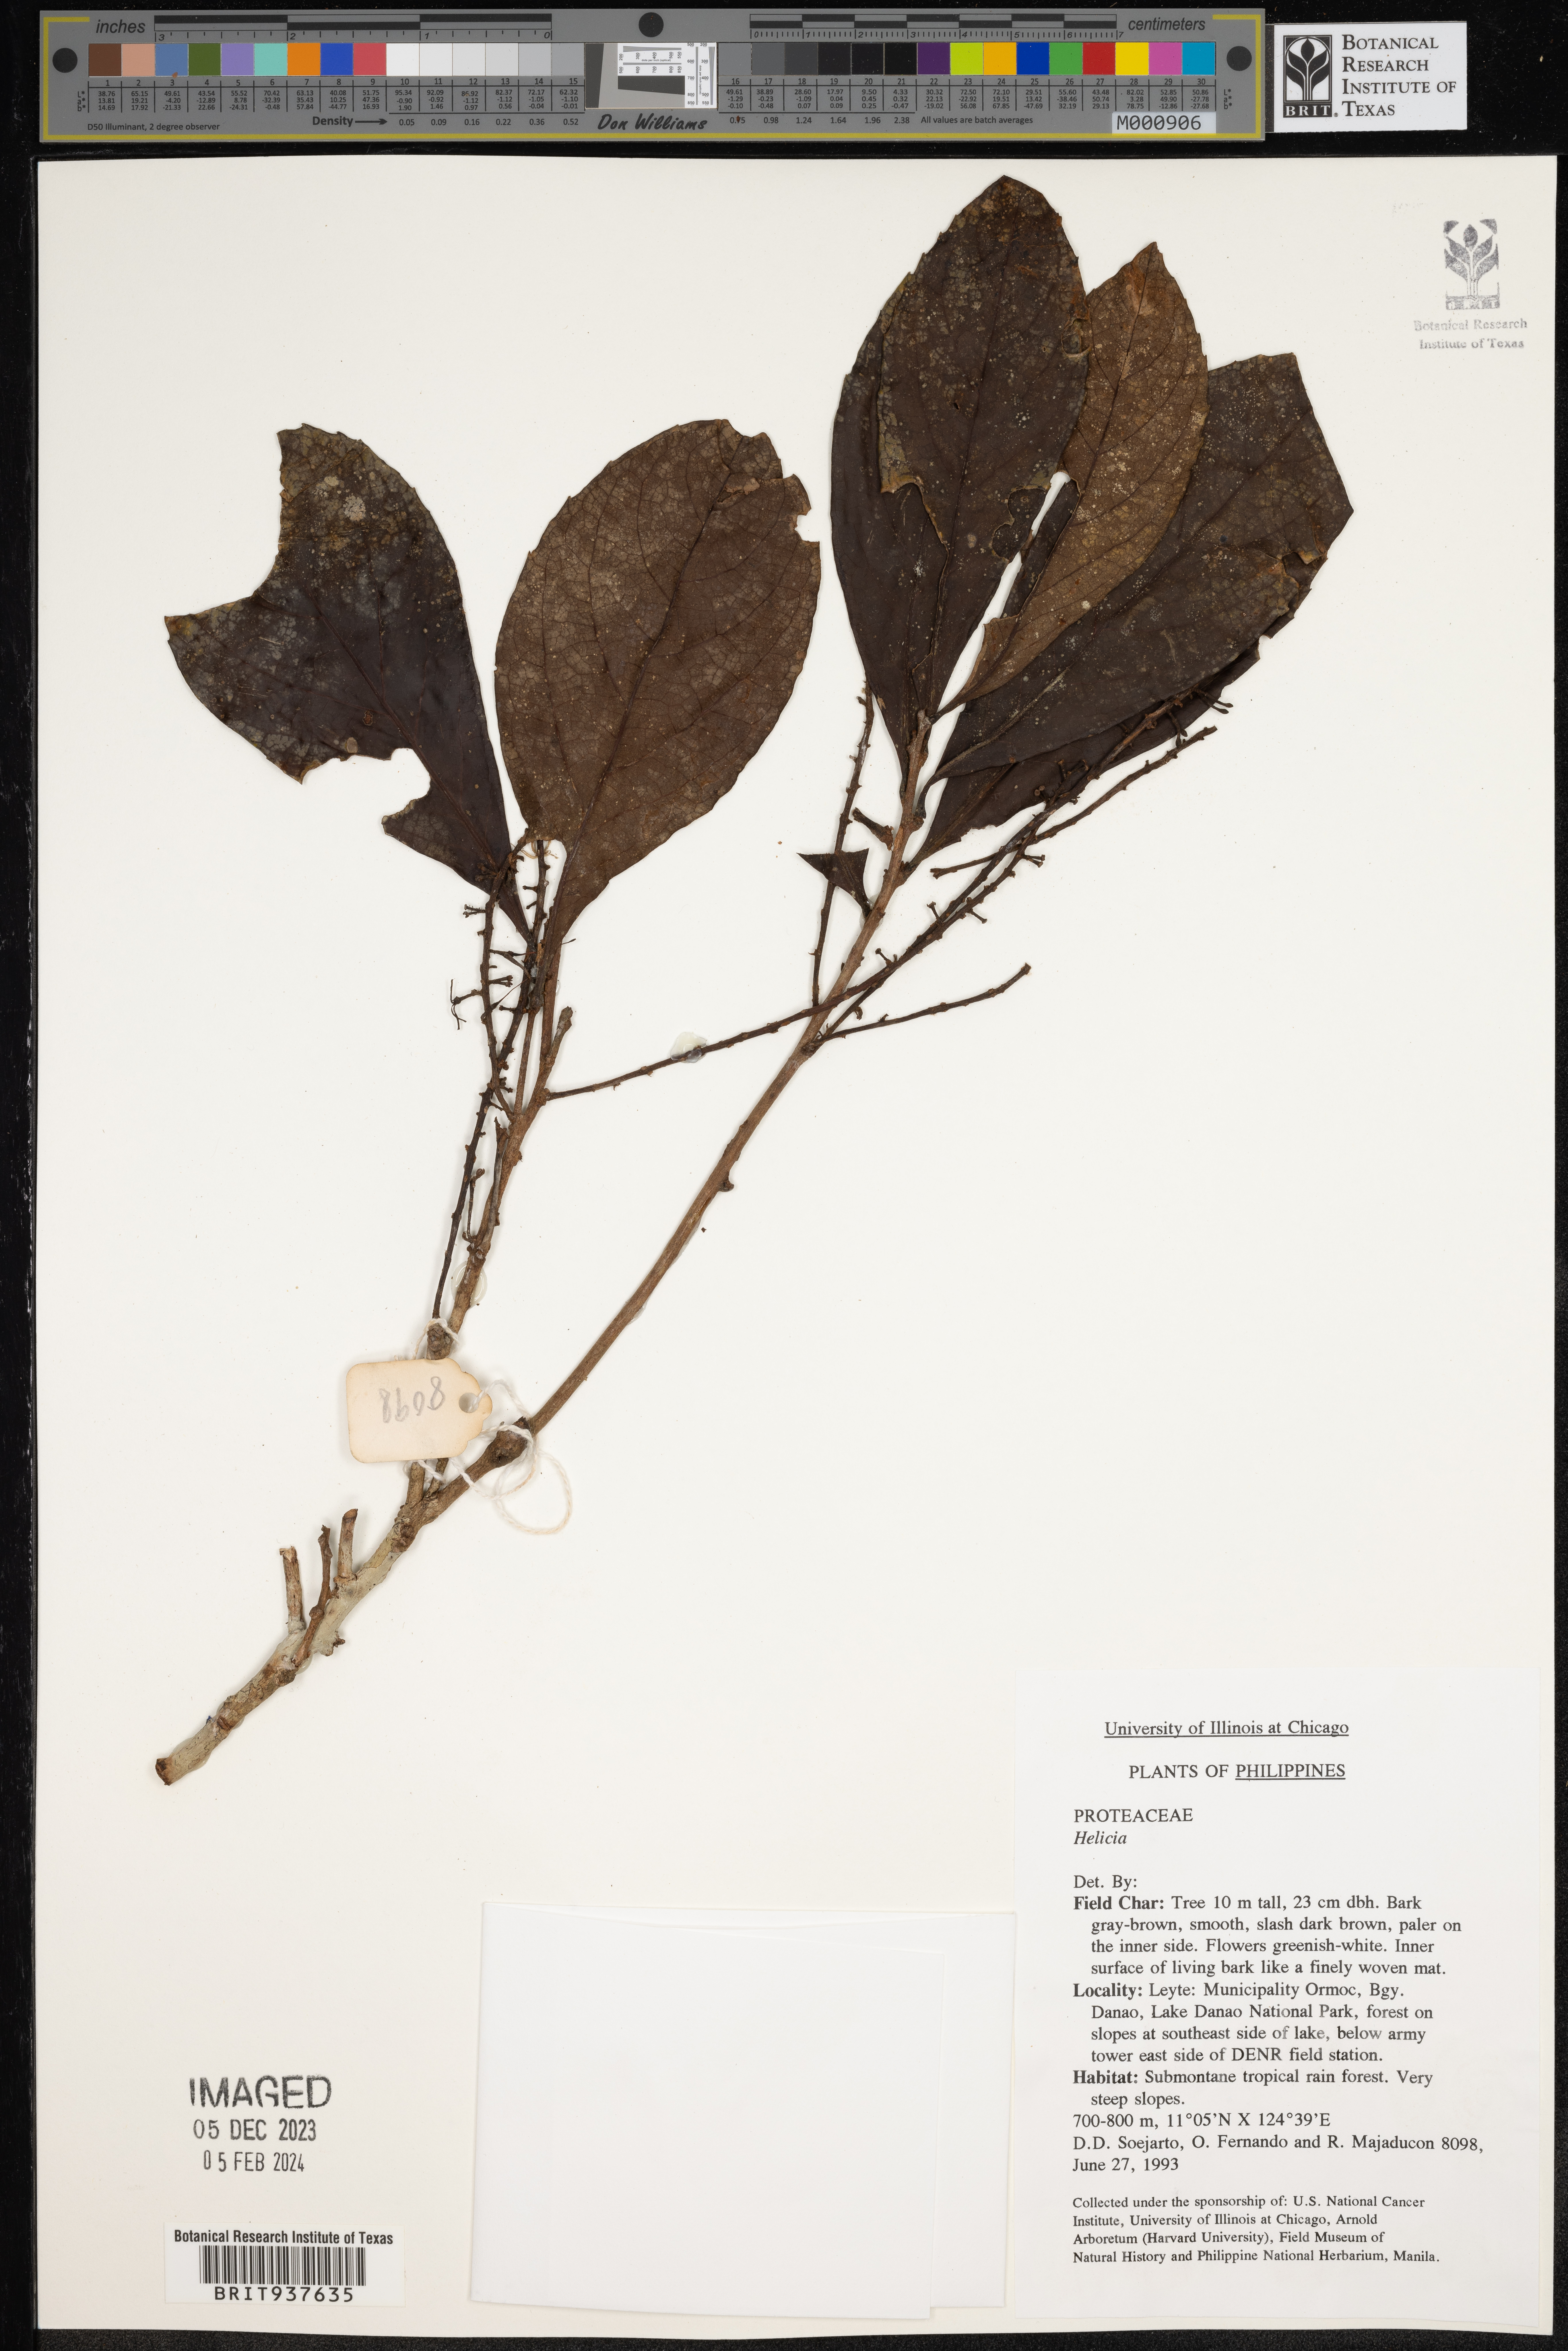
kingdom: Plantae
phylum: Tracheophyta
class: Magnoliopsida
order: Proteales
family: Proteaceae
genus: Stenocarpus
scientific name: Stenocarpus
